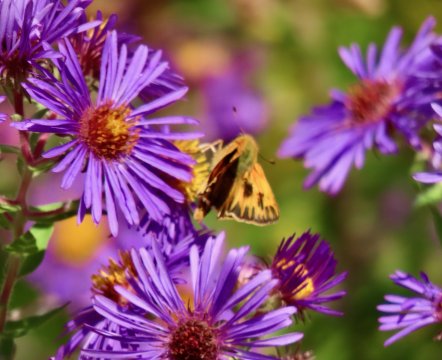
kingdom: Animalia
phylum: Arthropoda
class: Insecta
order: Lepidoptera
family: Hesperiidae
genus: Hylephila
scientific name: Hylephila phyleus
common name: Fiery Skipper
